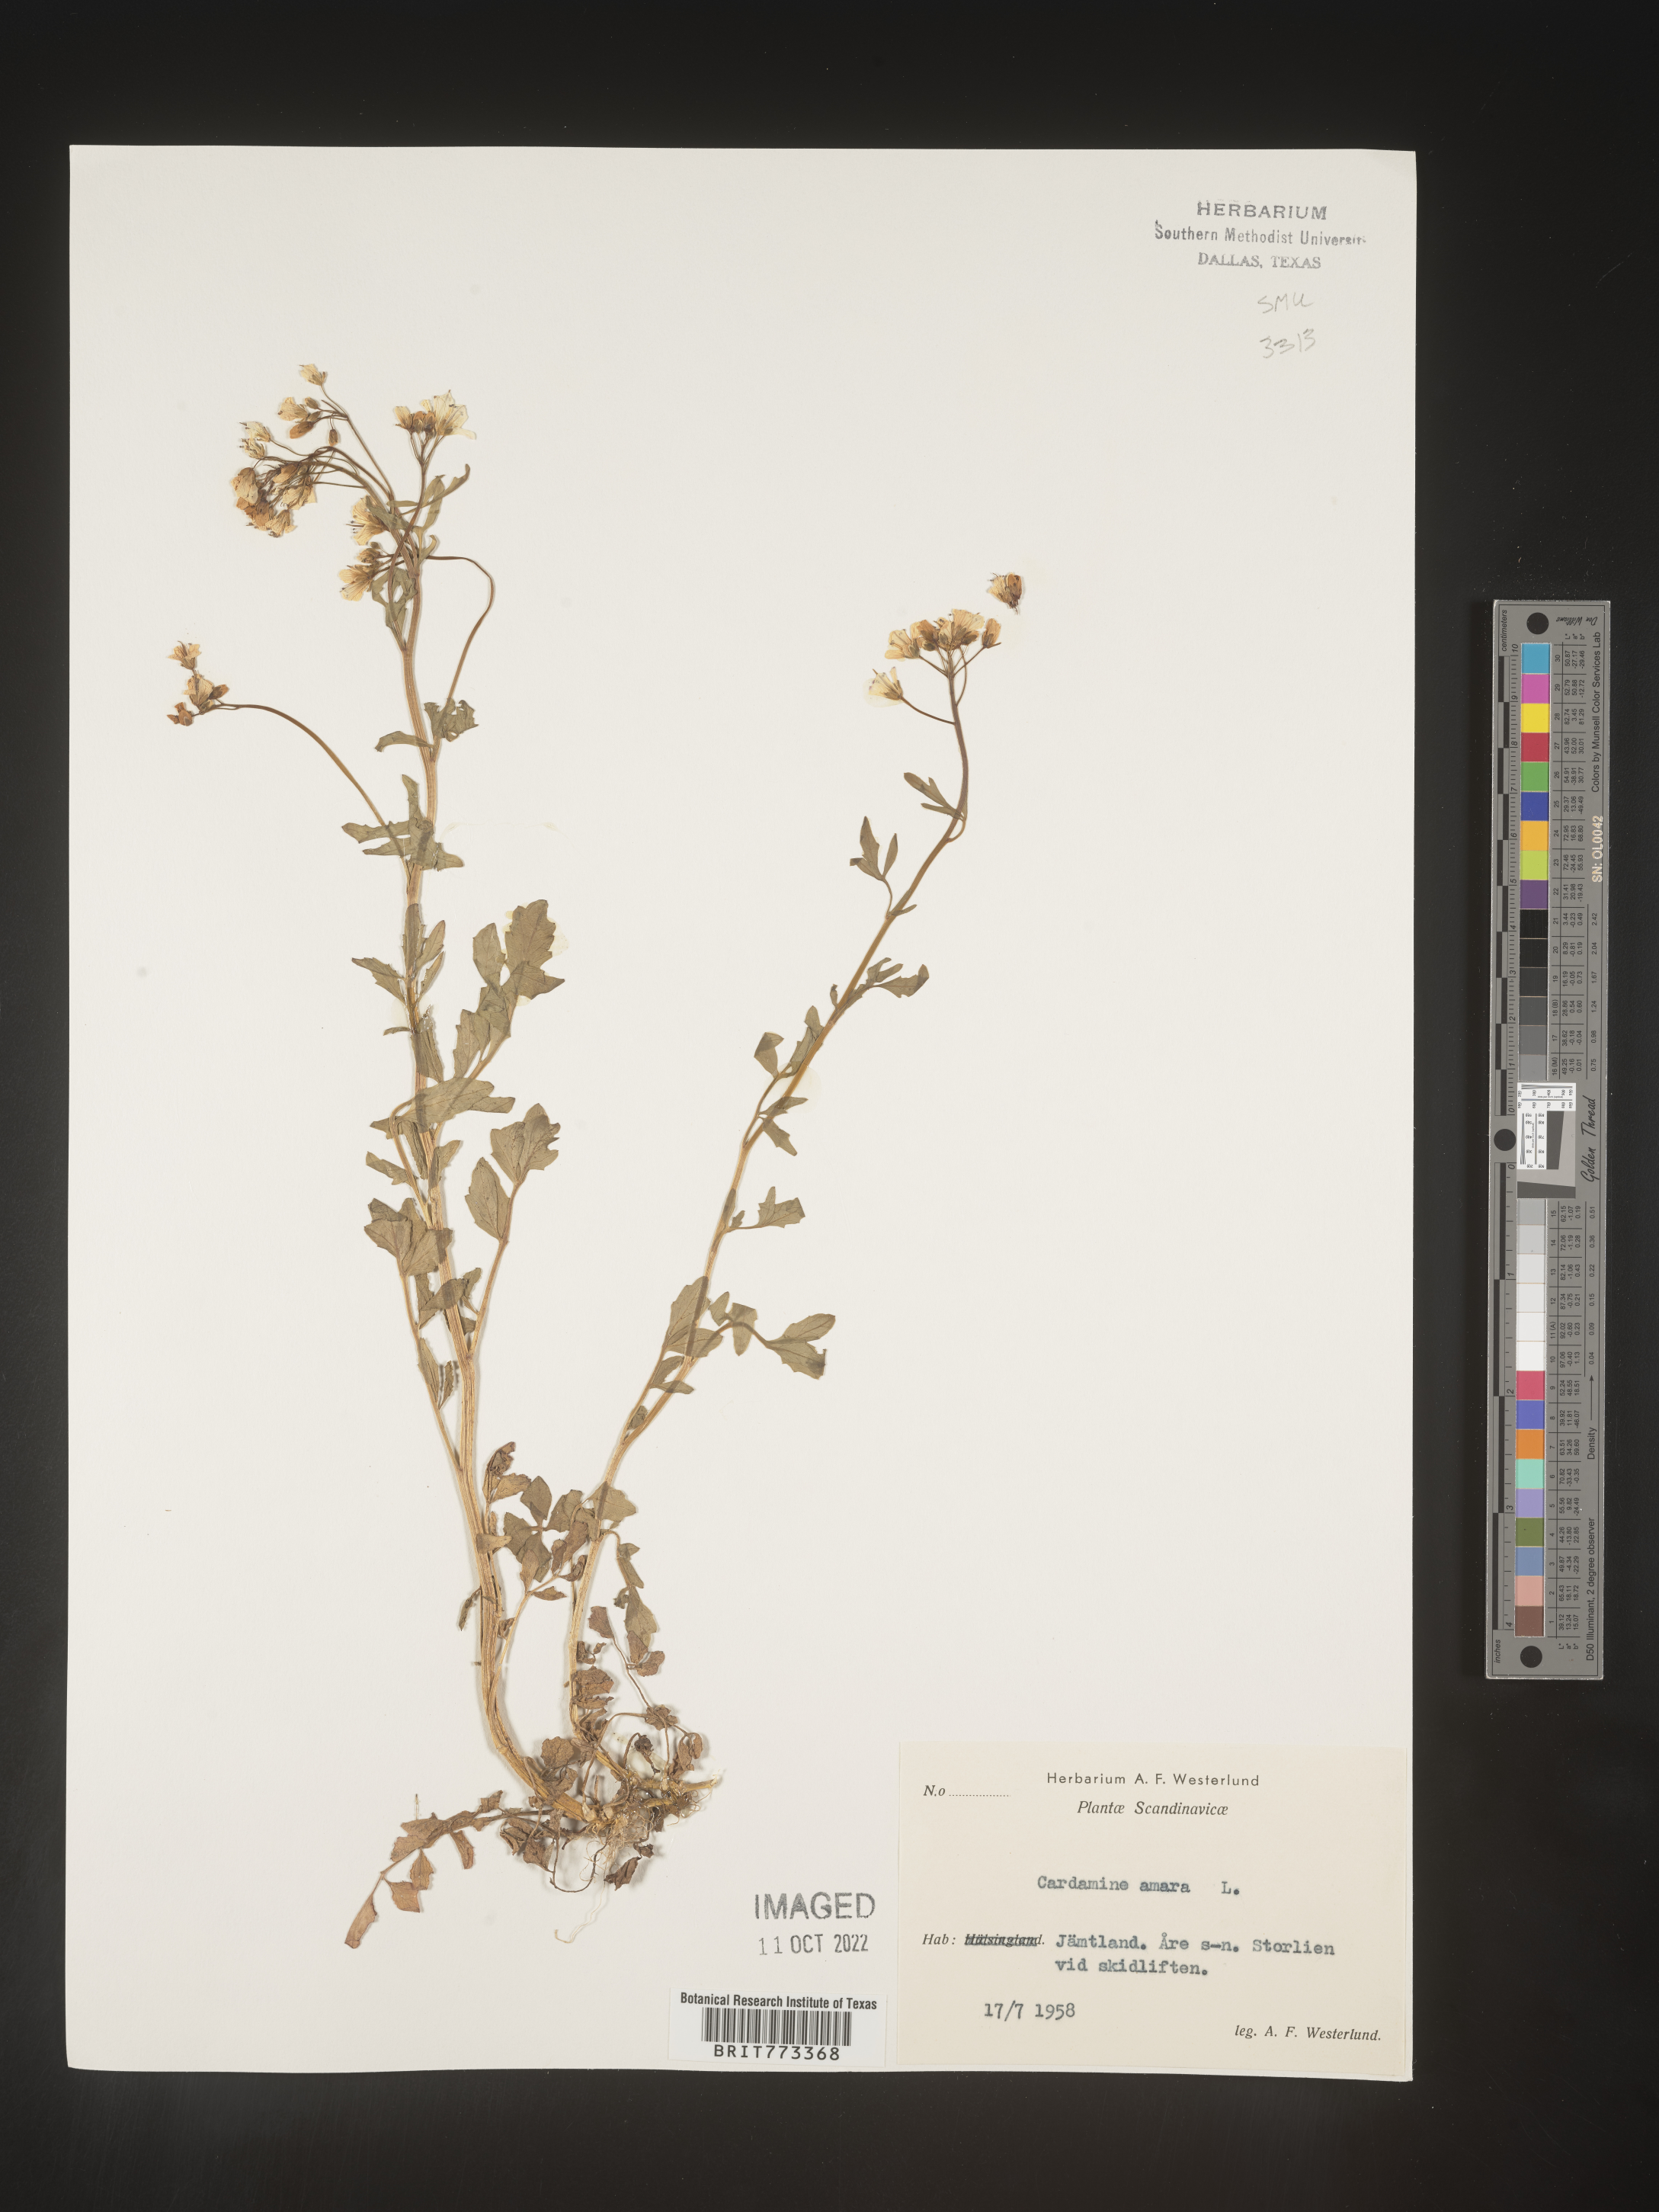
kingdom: Plantae
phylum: Tracheophyta
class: Magnoliopsida
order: Brassicales
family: Brassicaceae
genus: Cardamine
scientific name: Cardamine
